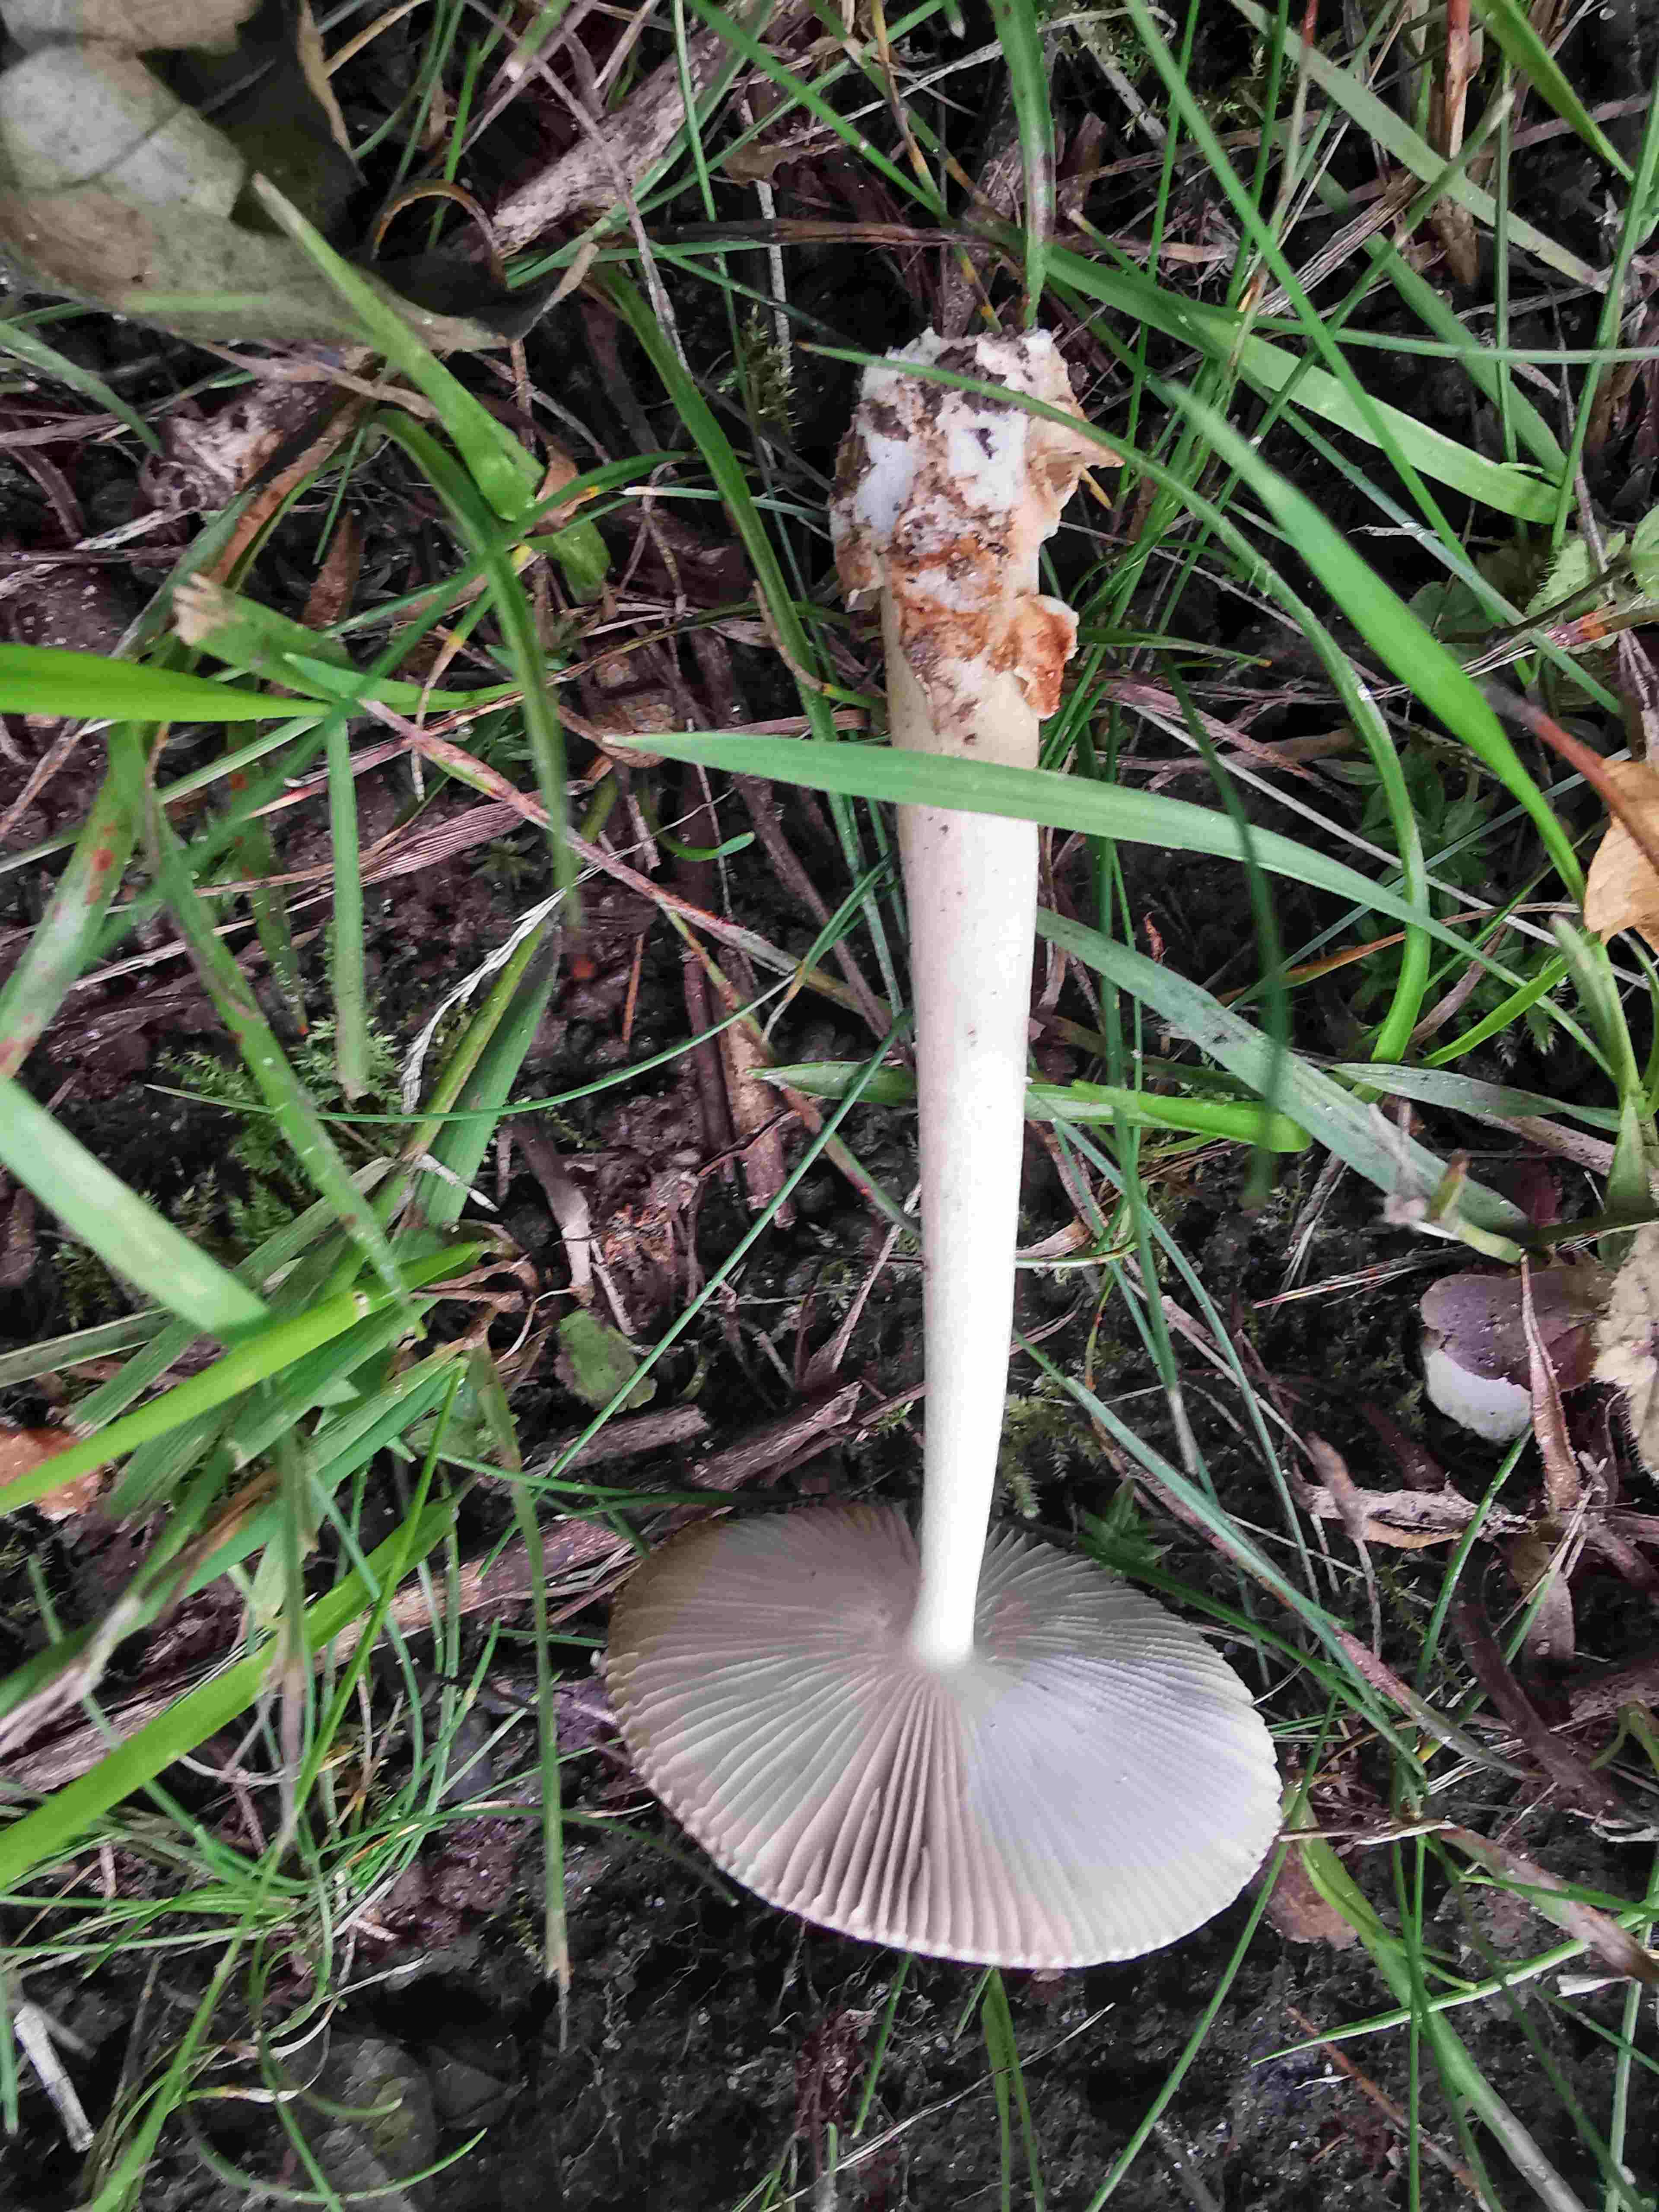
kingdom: Fungi
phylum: Basidiomycota
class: Agaricomycetes
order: Agaricales
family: Amanitaceae
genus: Amanita
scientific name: Amanita fulva
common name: brun kam-fluesvamp
